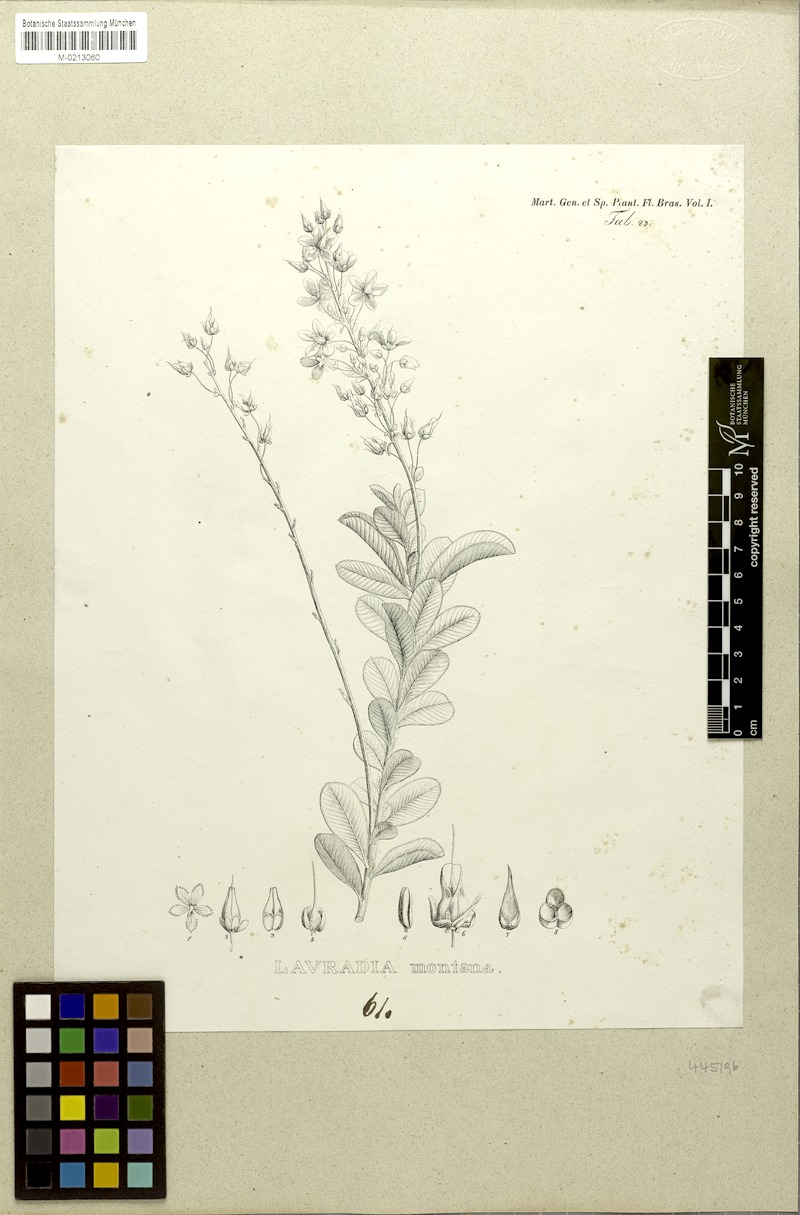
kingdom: Plantae
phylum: Tracheophyta
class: Magnoliopsida
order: Malpighiales
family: Ochnaceae
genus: Sauvagesia
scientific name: Sauvagesia glandulosa
